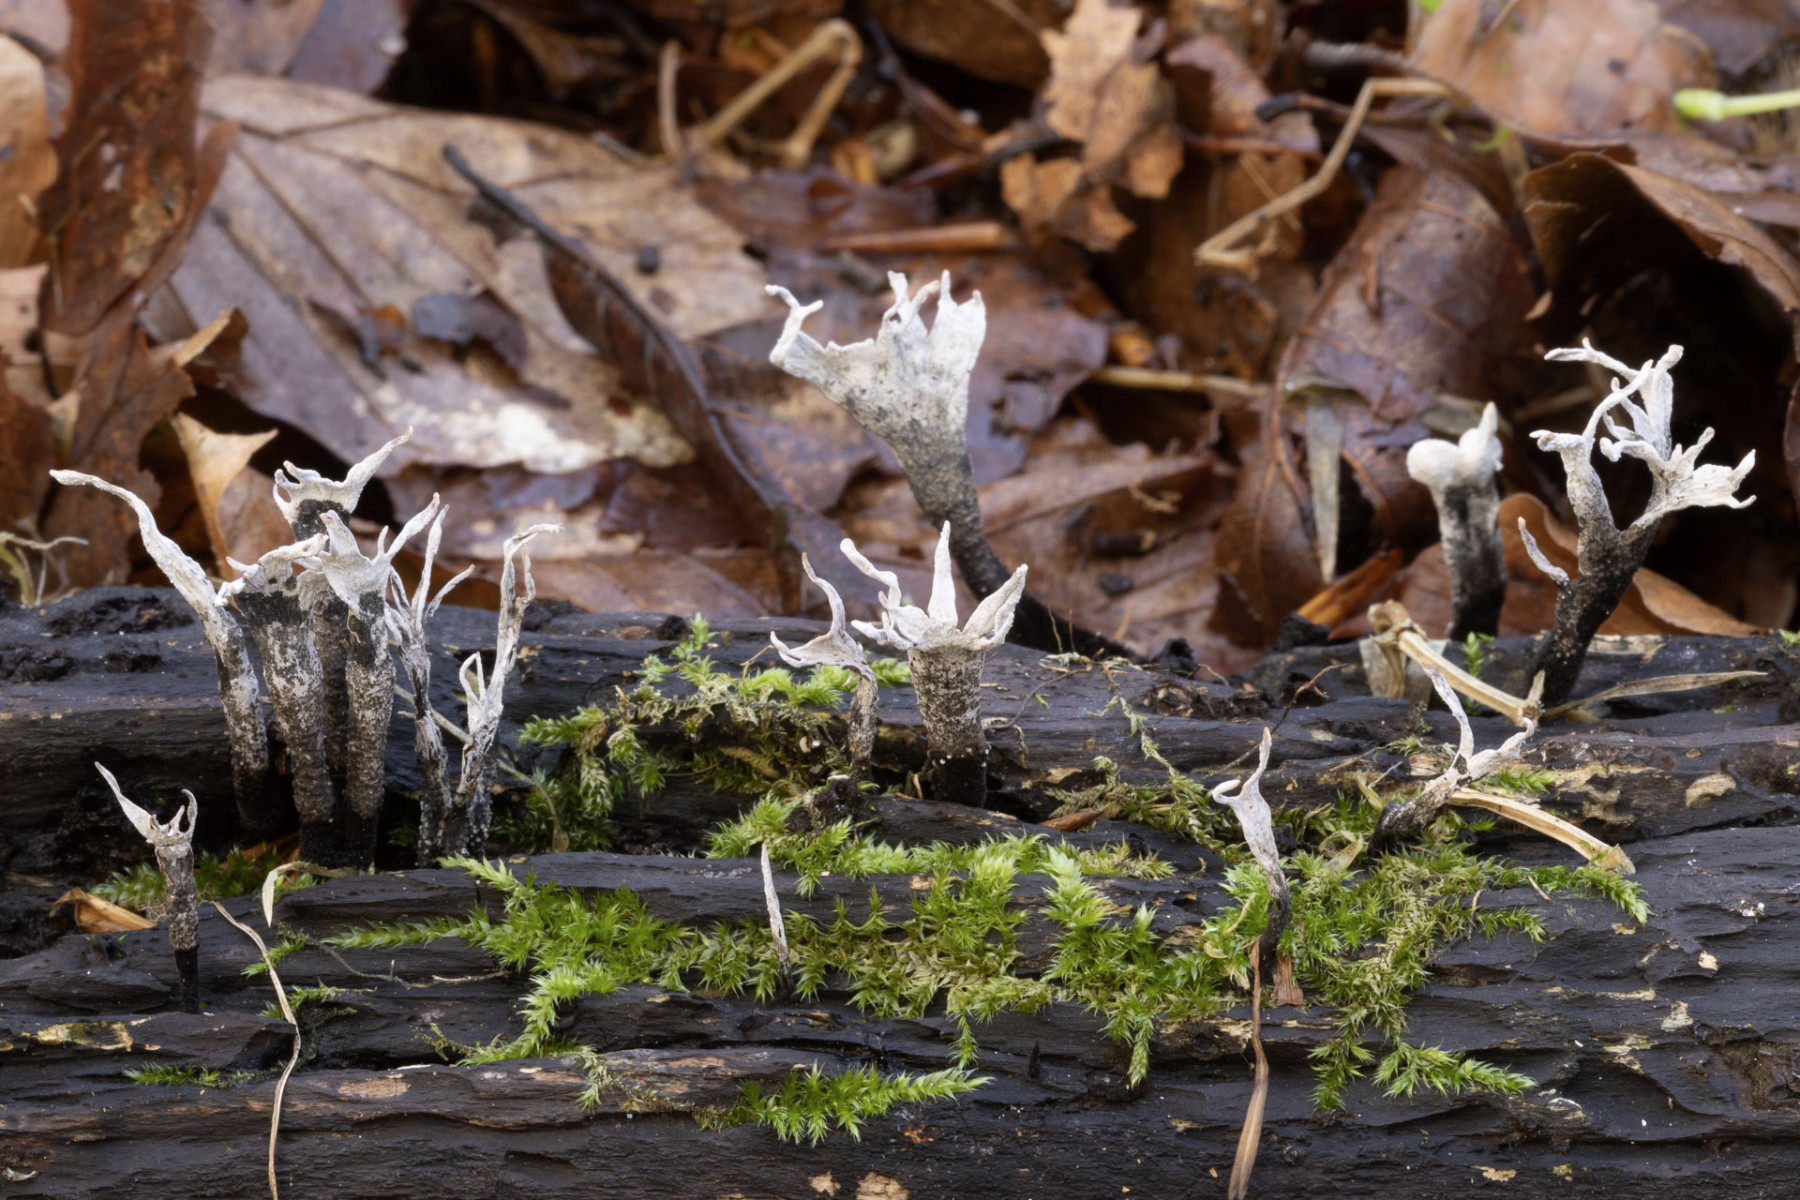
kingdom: Fungi
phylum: Ascomycota
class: Sordariomycetes
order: Xylariales
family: Xylariaceae
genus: Xylaria
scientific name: Xylaria hypoxylon
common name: grenet stødsvamp
